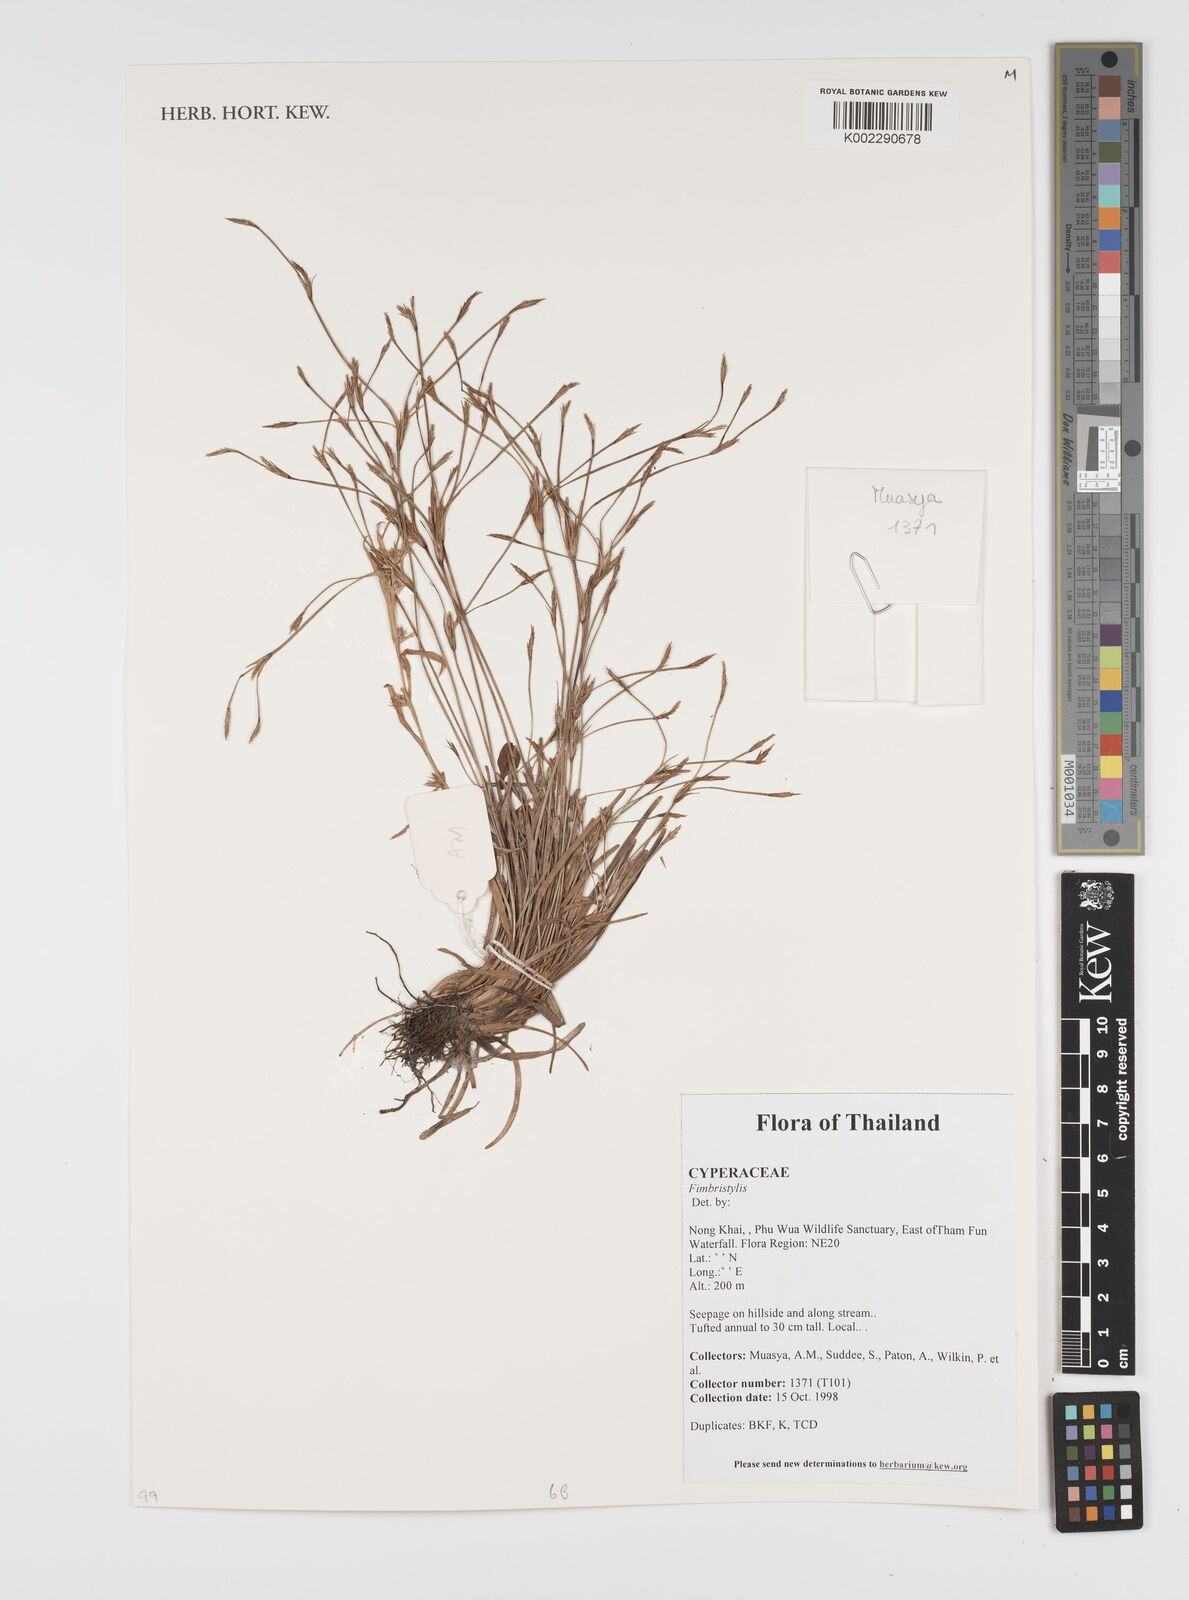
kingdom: Plantae
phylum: Tracheophyta
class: Liliopsida
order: Poales
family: Cyperaceae
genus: Fimbristylis
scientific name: Fimbristylis
